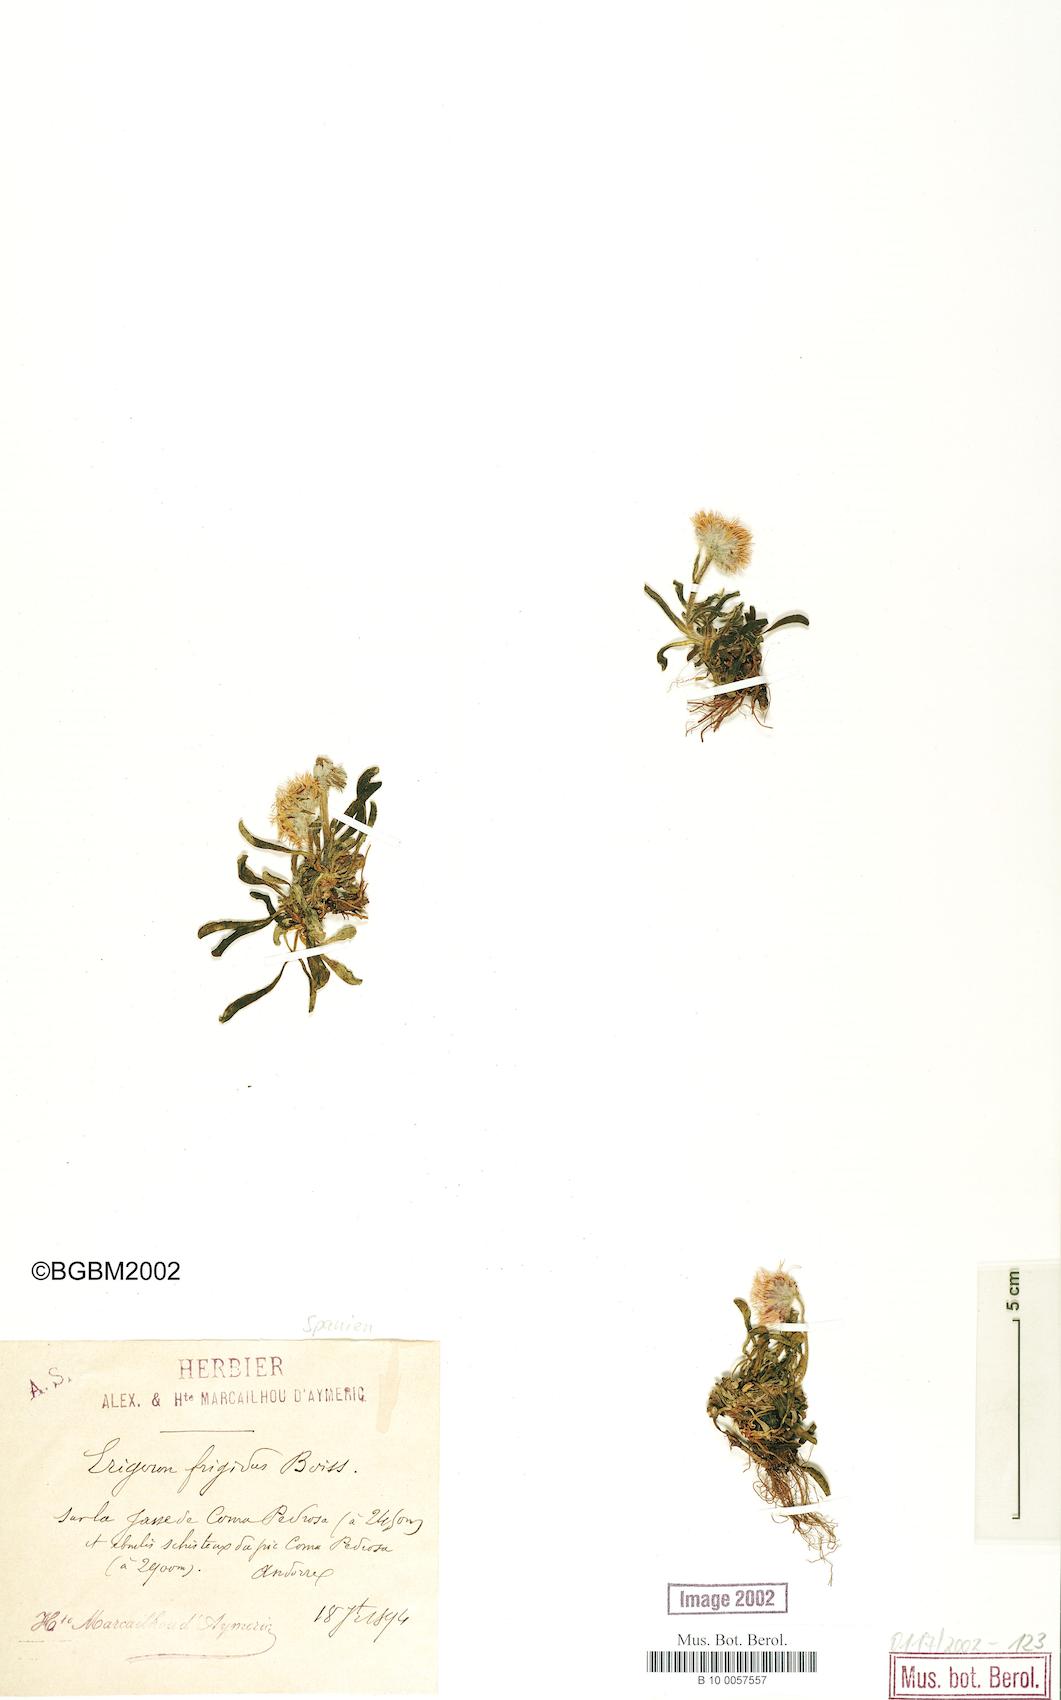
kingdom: Plantae
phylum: Tracheophyta
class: Magnoliopsida
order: Asterales
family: Asteraceae
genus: Erigeron
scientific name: Erigeron aragonensis
